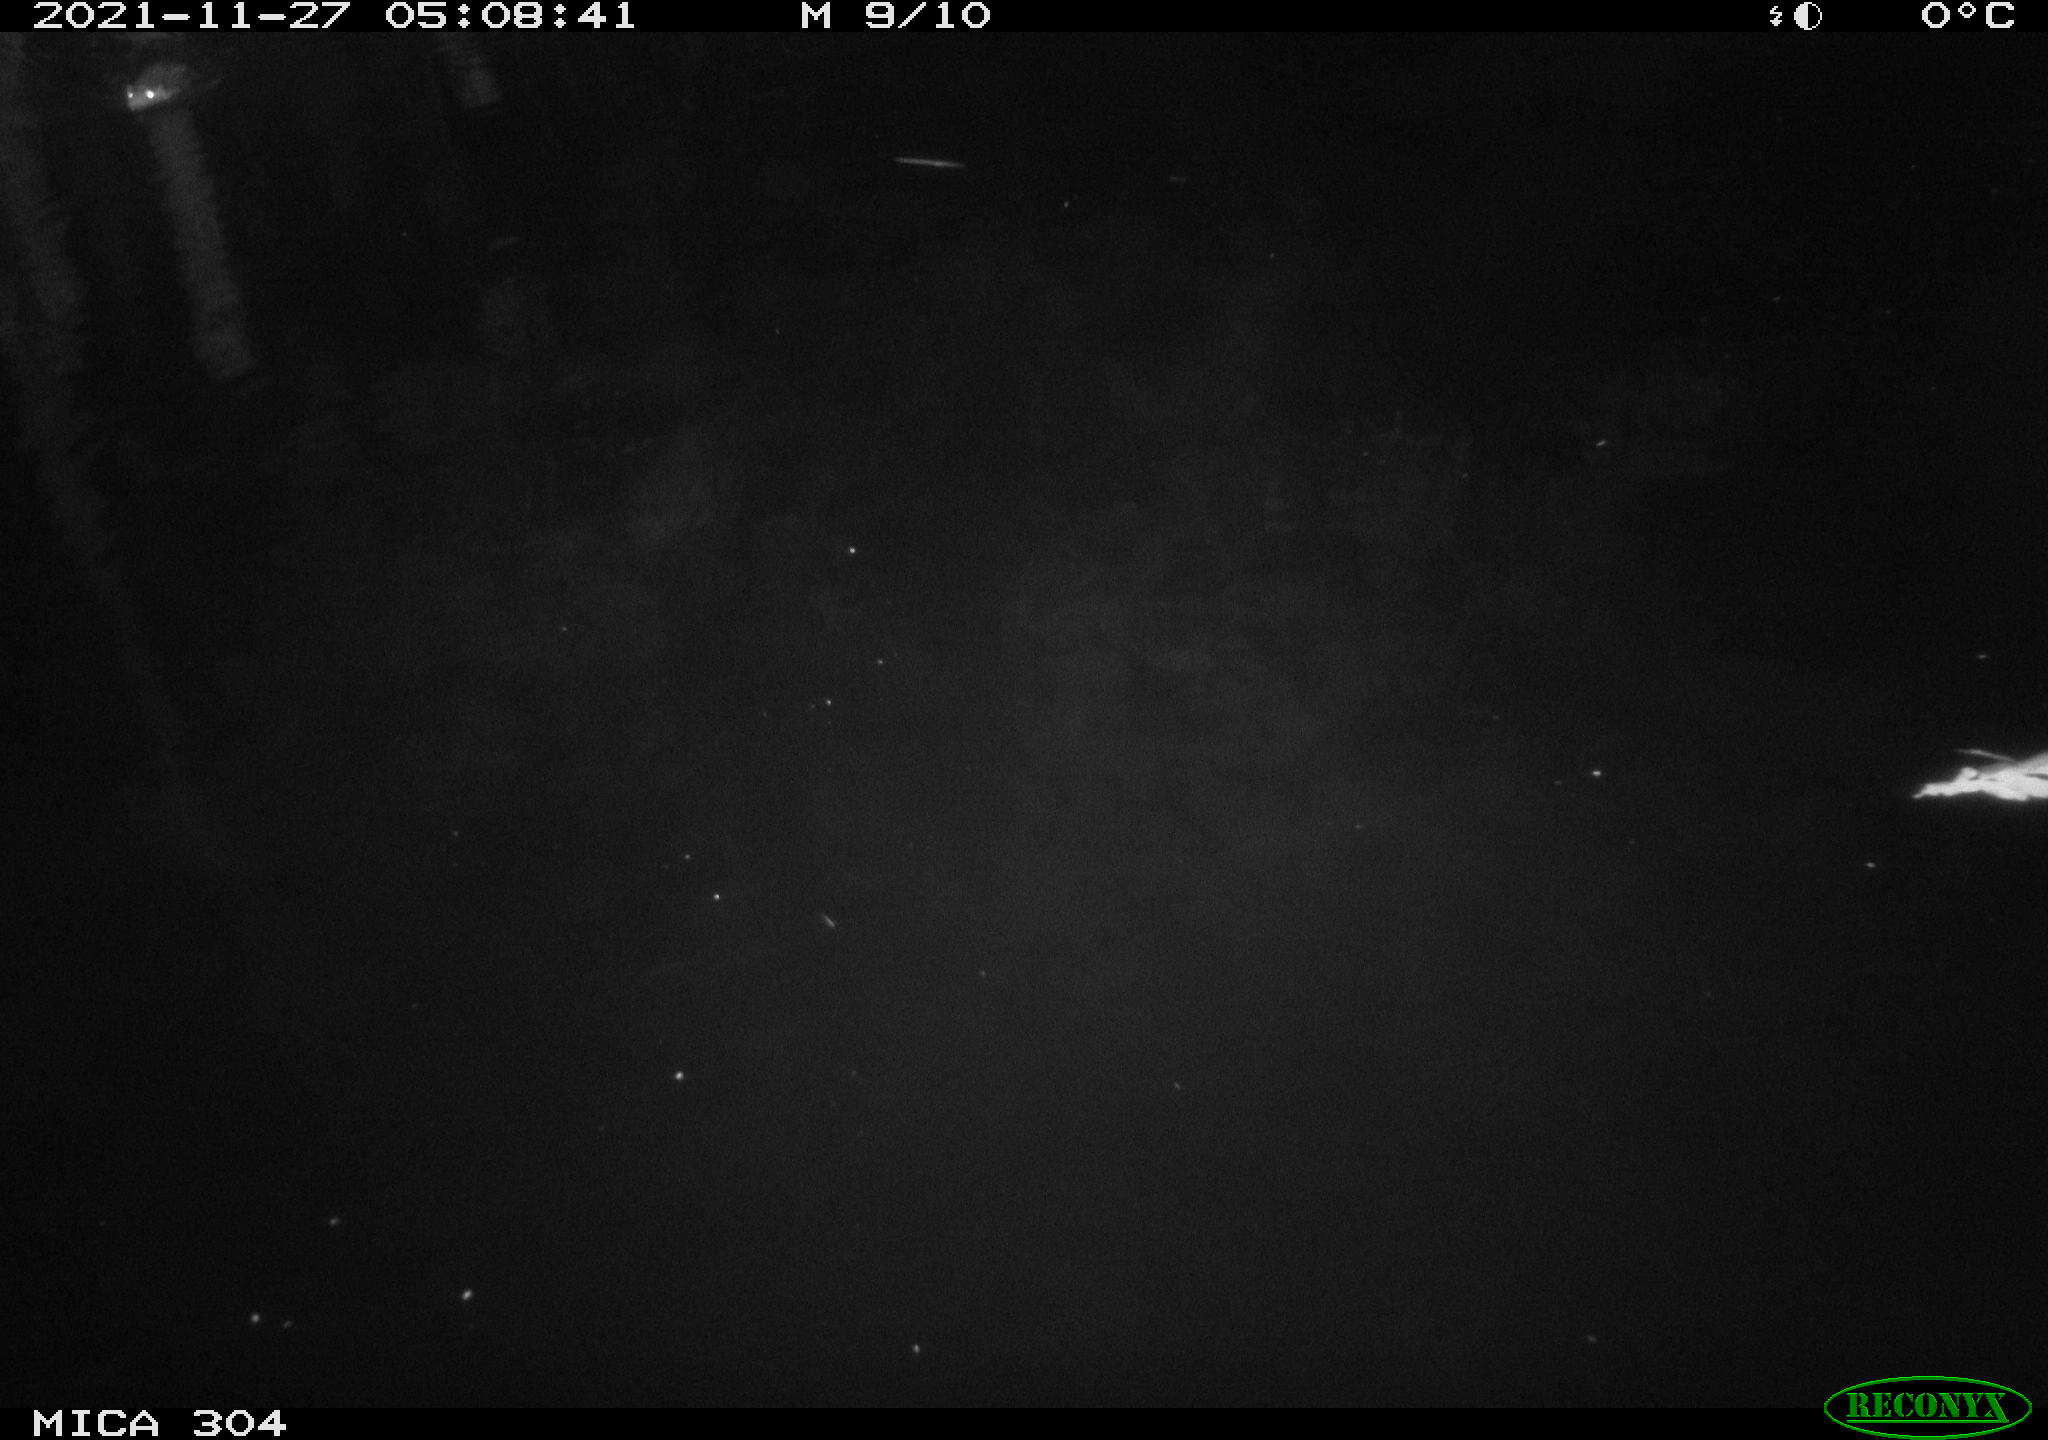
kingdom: Animalia
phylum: Chordata
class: Mammalia
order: Rodentia
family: Cricetidae
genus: Ondatra
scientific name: Ondatra zibethicus
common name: Muskrat
